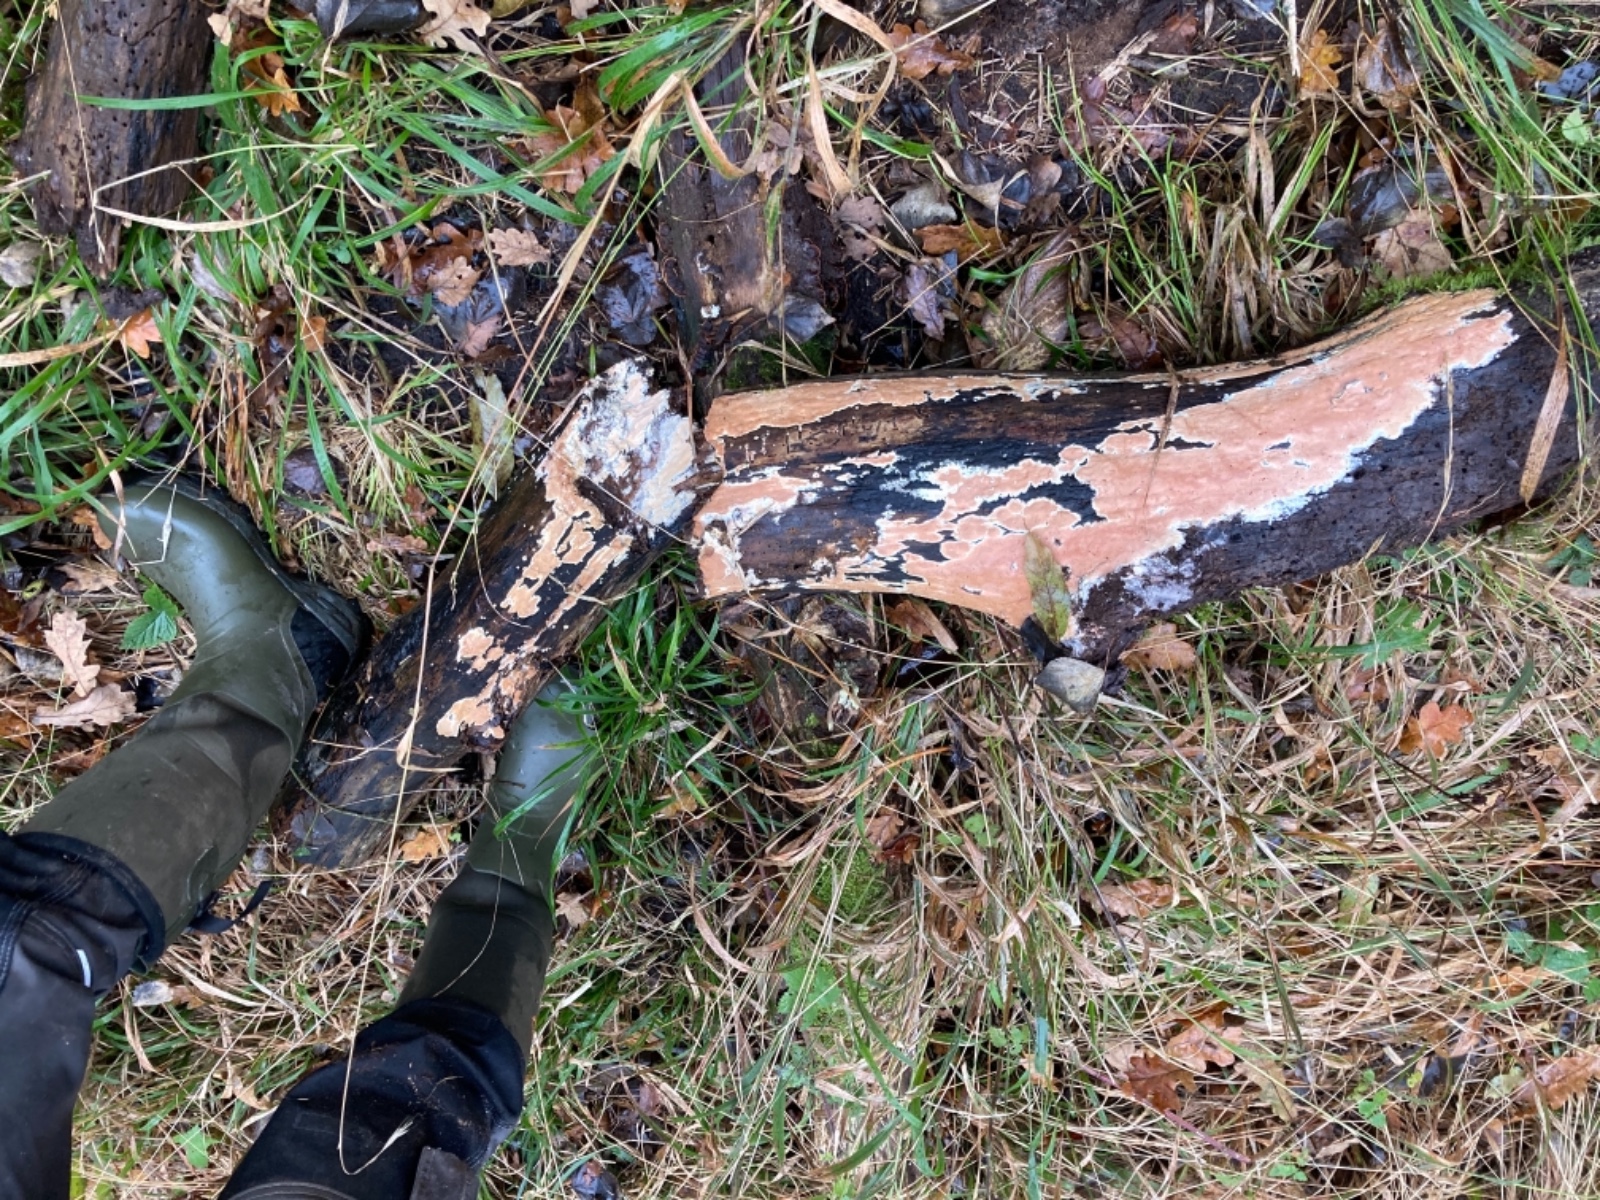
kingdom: Fungi
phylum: Basidiomycota
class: Agaricomycetes
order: Polyporales
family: Irpicaceae
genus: Ceriporia
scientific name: Ceriporia mellita
